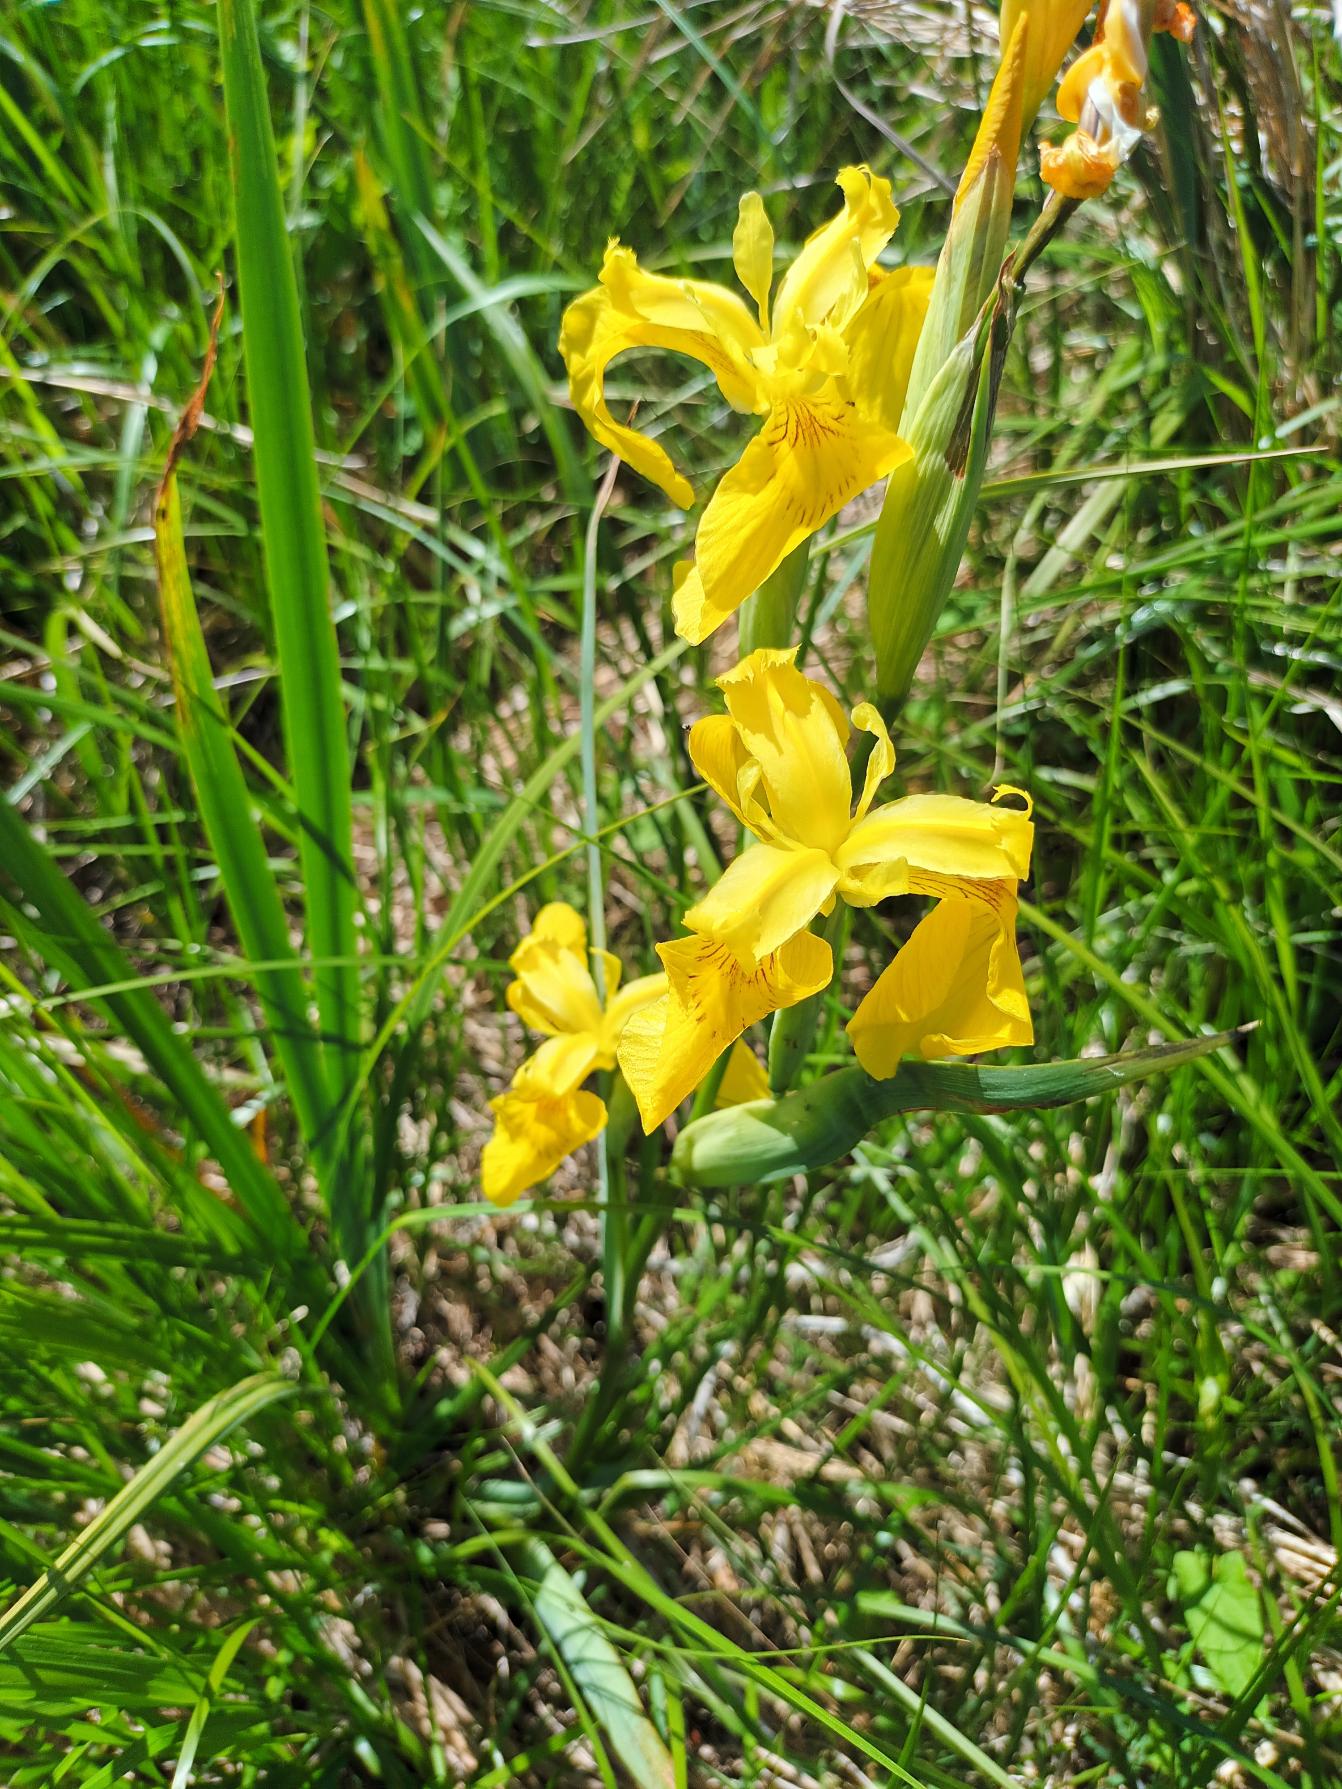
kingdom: Plantae
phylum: Tracheophyta
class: Liliopsida
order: Asparagales
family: Iridaceae
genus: Iris
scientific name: Iris pseudacorus
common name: Gul iris
